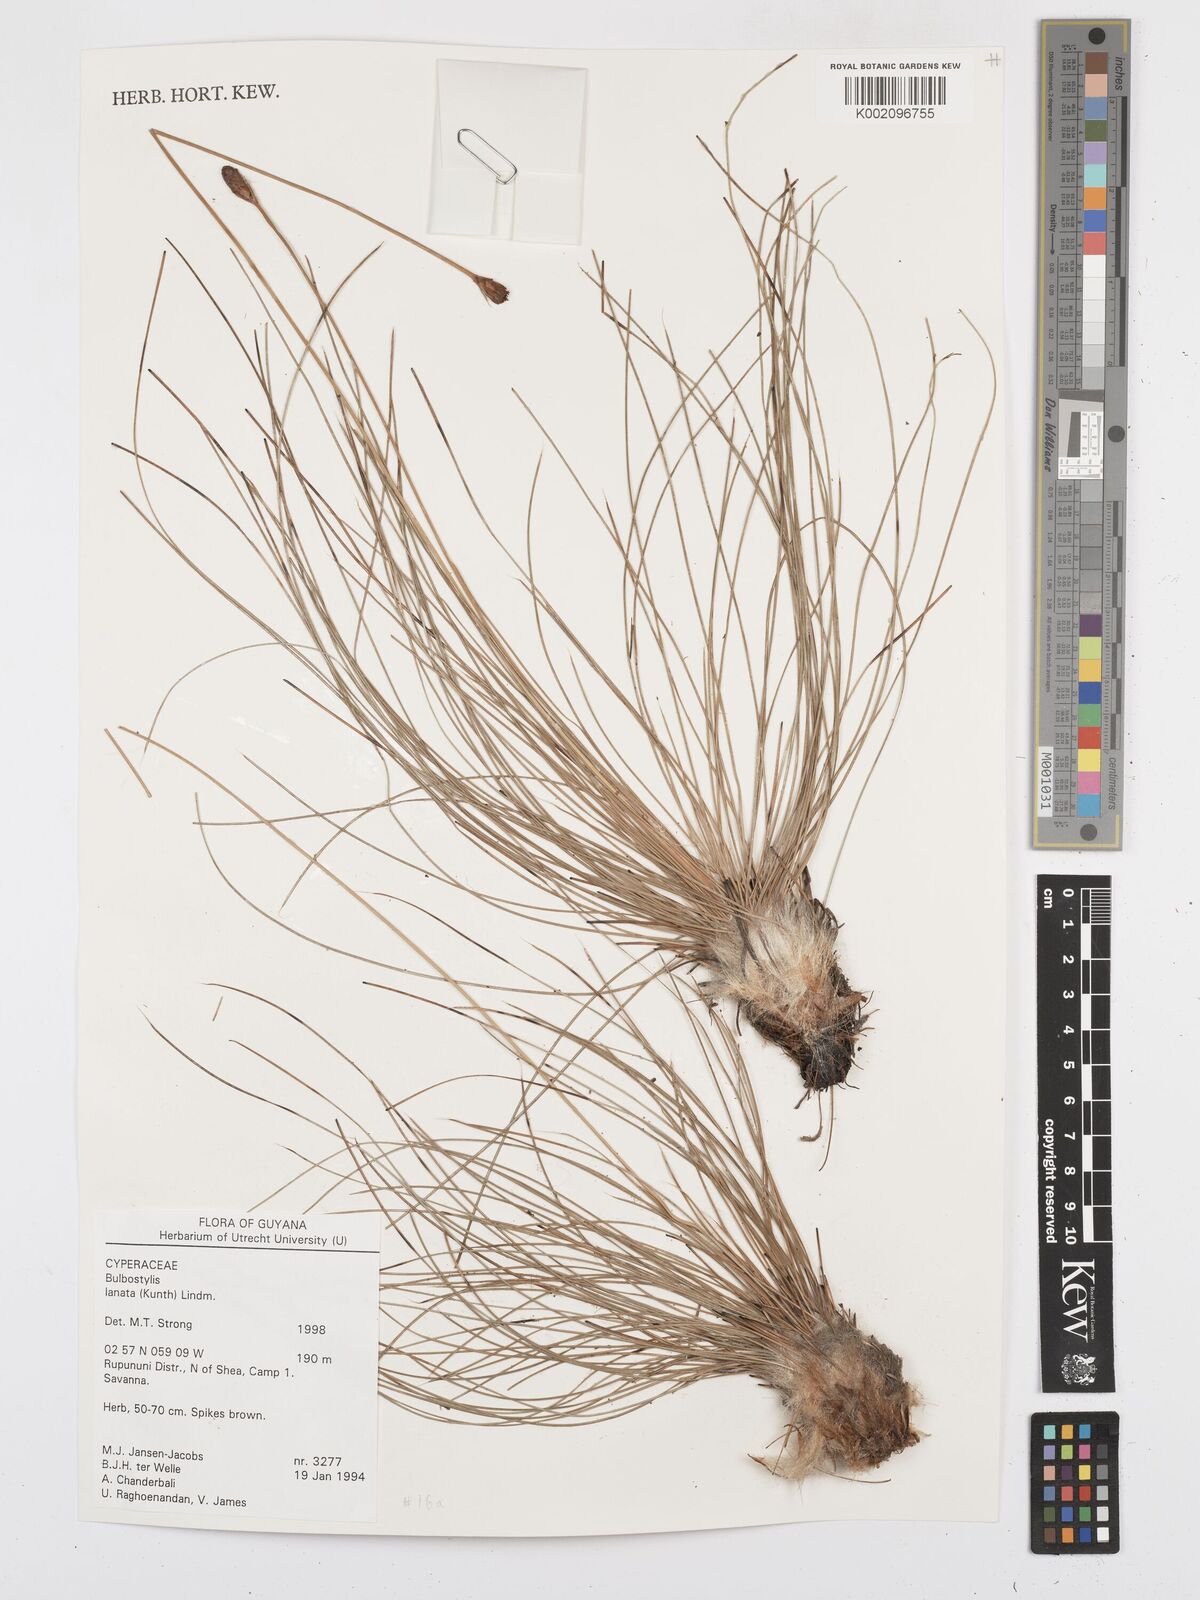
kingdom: Plantae
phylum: Tracheophyta
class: Liliopsida
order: Poales
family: Cyperaceae
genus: Bulbostylis
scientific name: Bulbostylis
